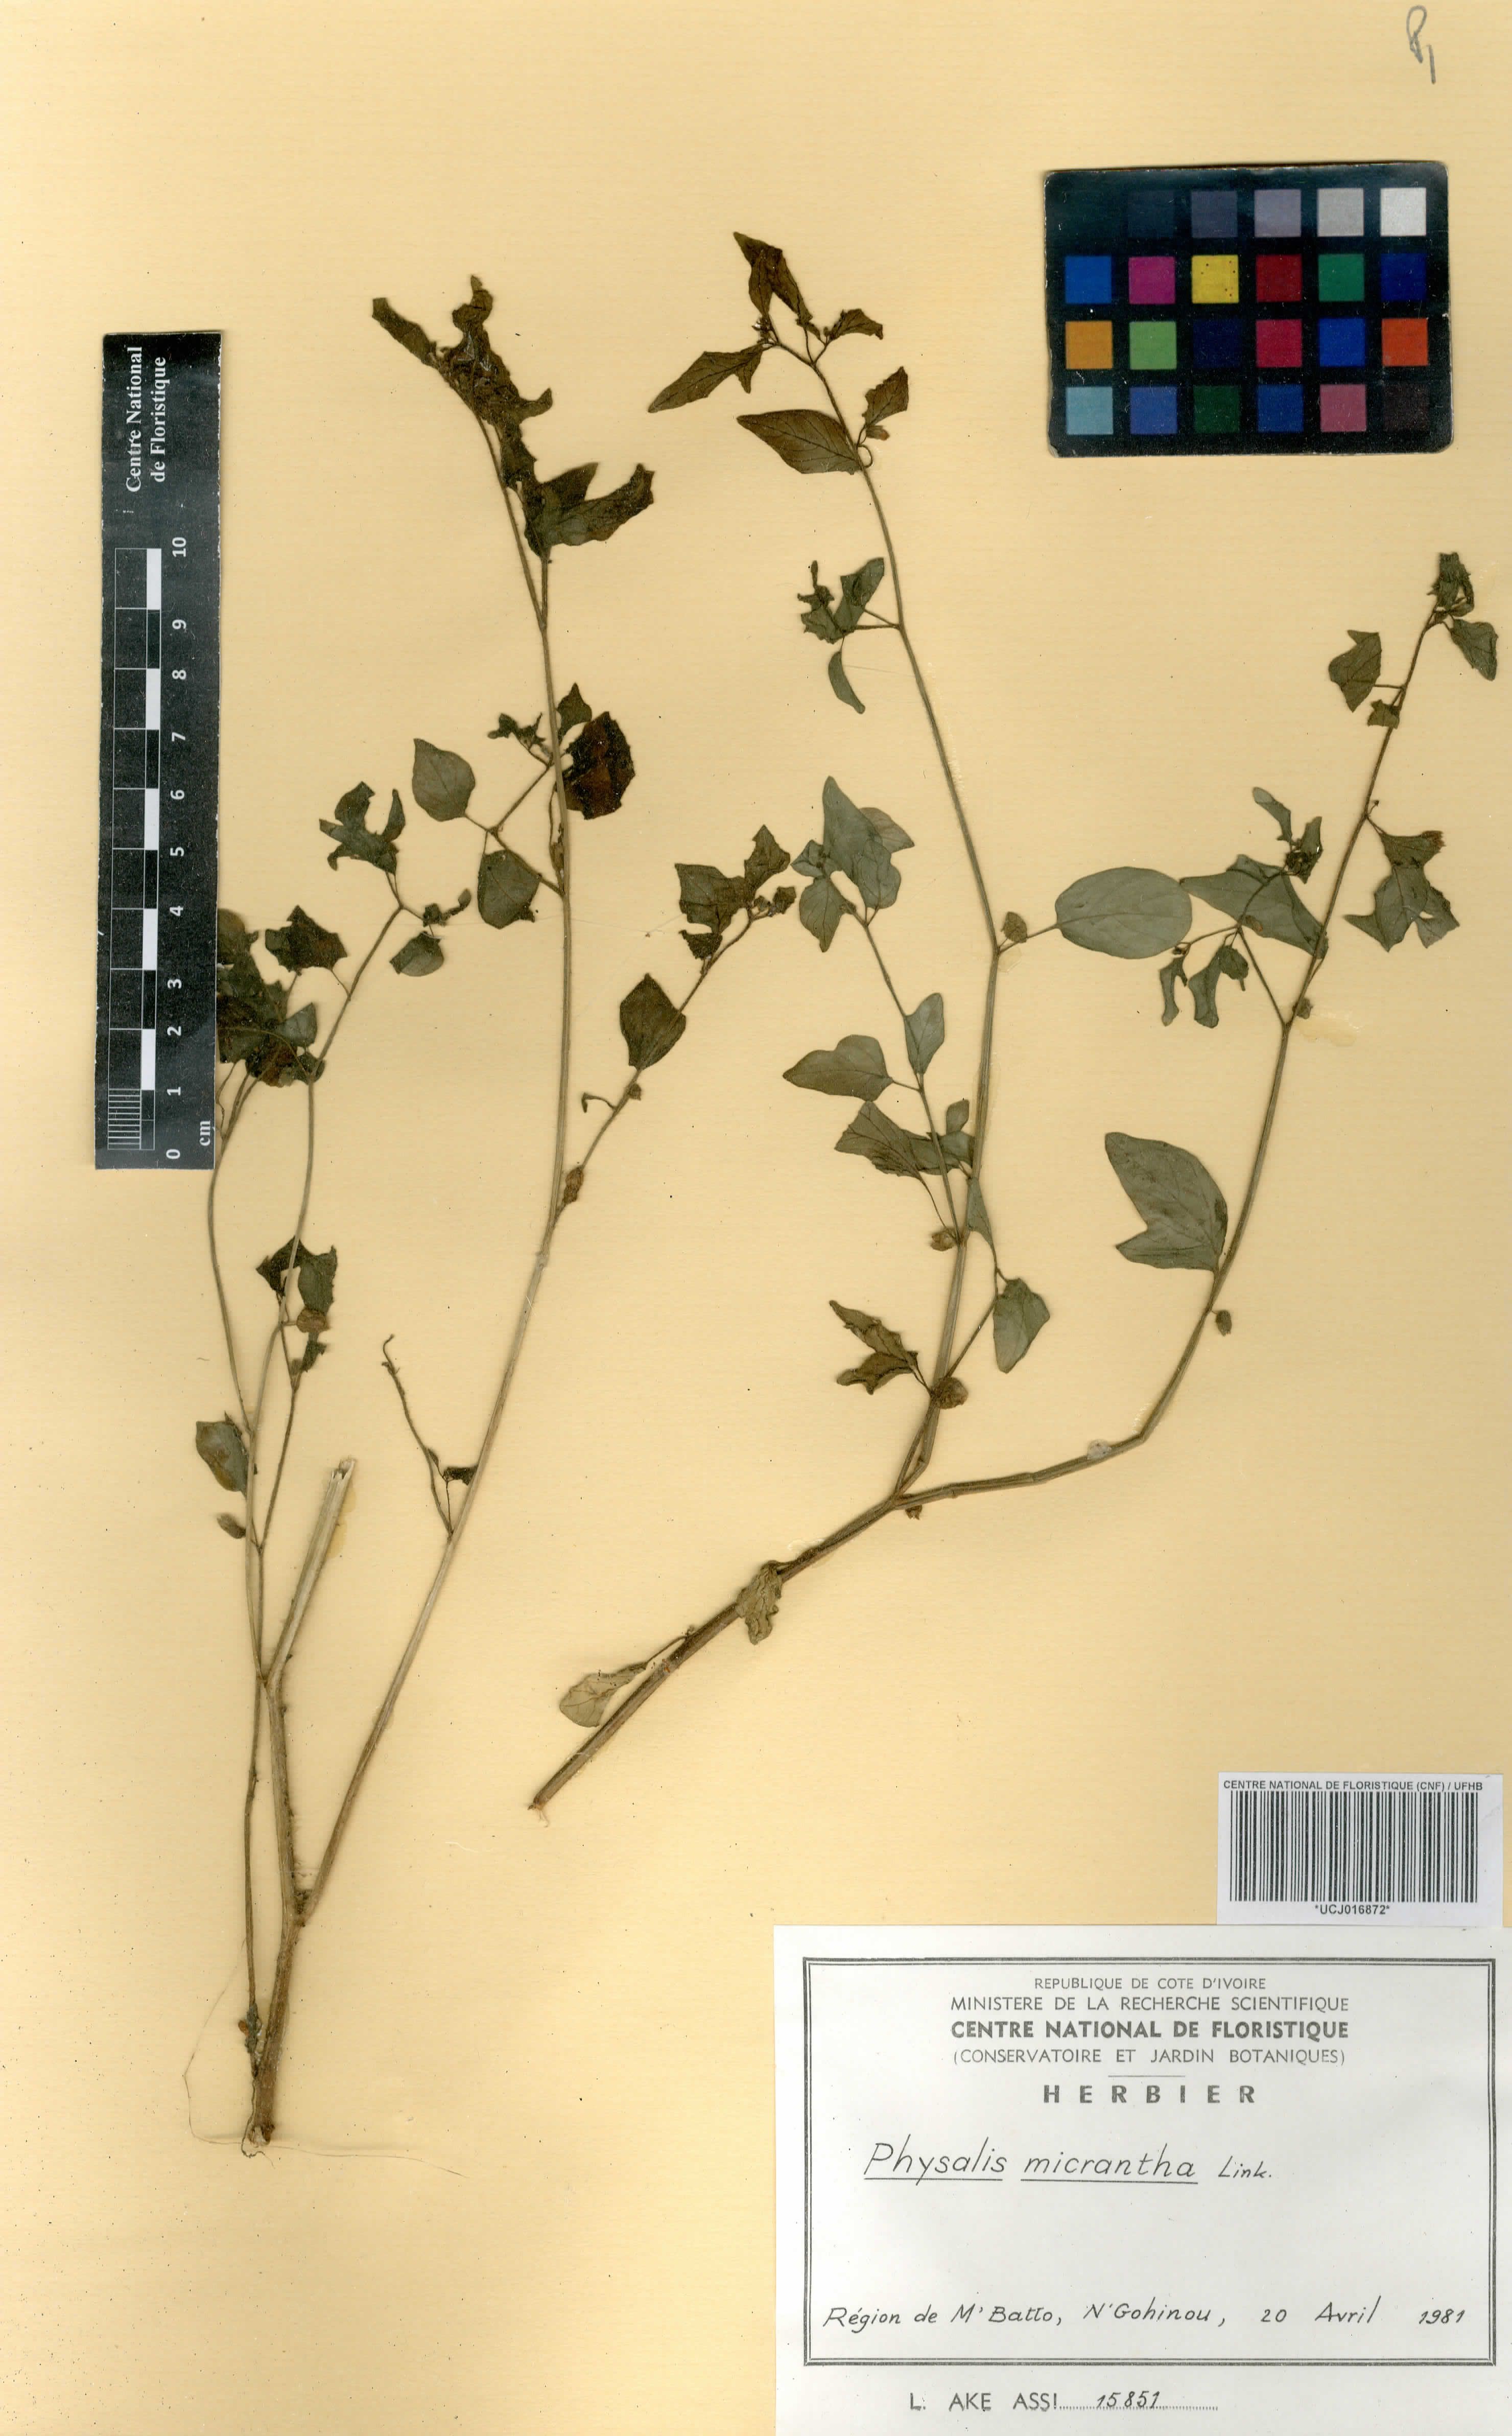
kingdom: Plantae
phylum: Tracheophyta
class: Magnoliopsida
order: Solanales
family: Solanaceae
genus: Physalis
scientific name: Physalis lagascae
